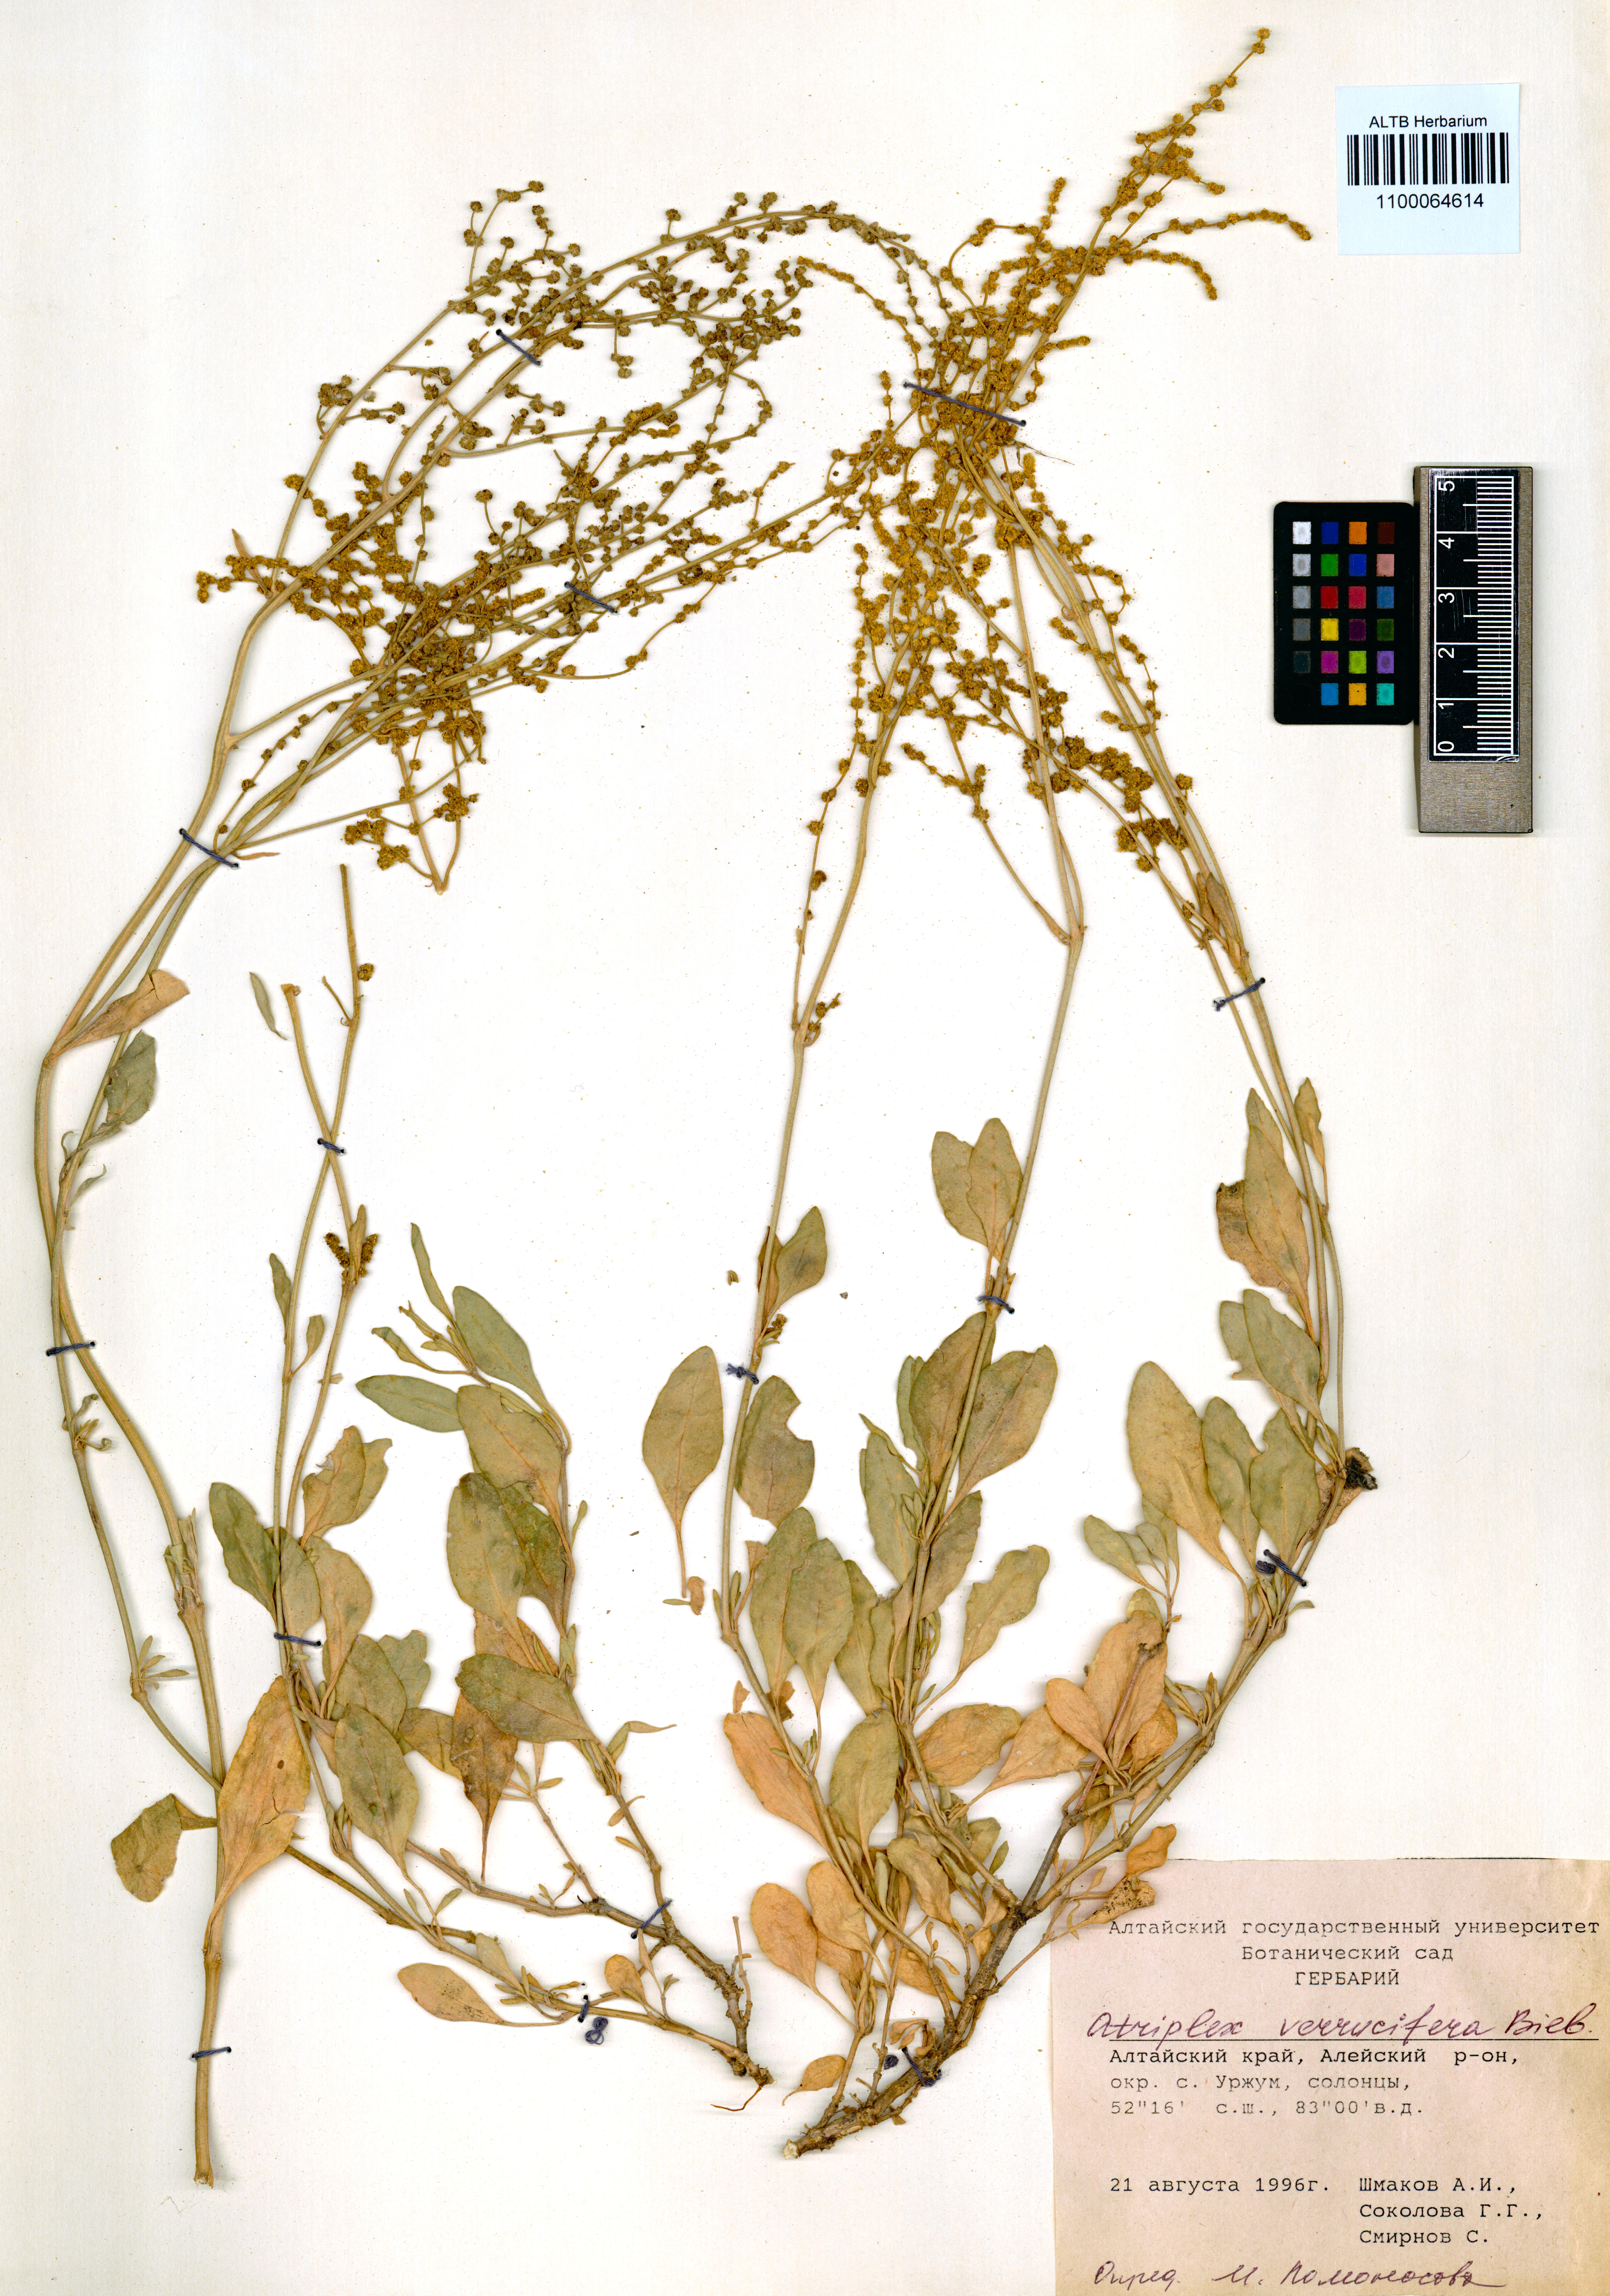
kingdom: Plantae
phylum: Tracheophyta
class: Magnoliopsida
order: Caryophyllales
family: Amaranthaceae
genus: Halimione
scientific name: Halimione verrucifera
